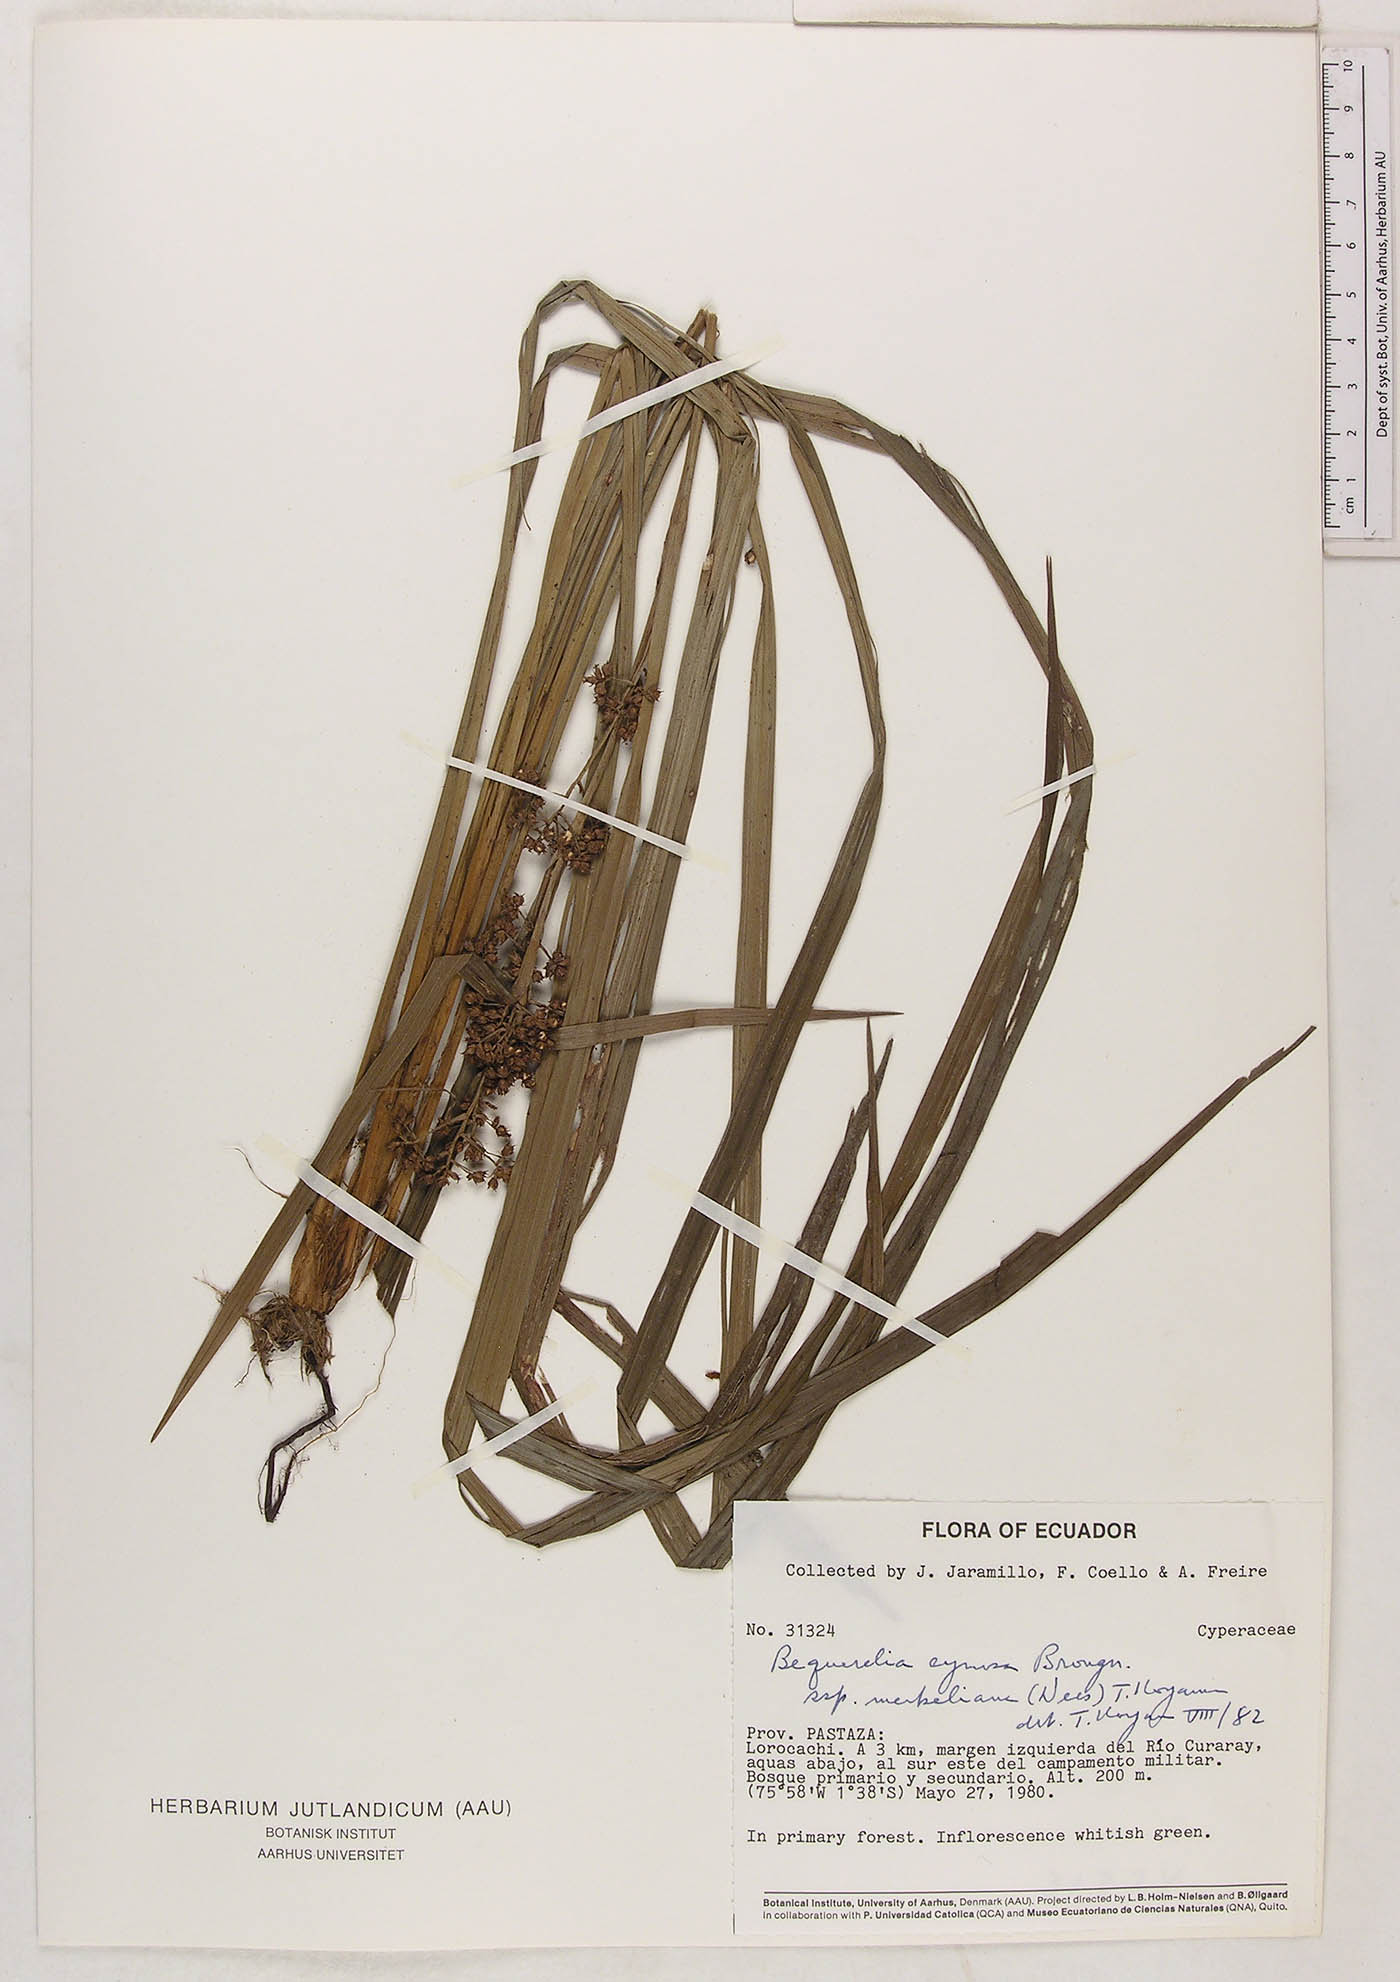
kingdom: Plantae
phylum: Tracheophyta
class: Liliopsida
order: Poales
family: Cyperaceae
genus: Becquerelia
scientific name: Becquerelia cymosa
